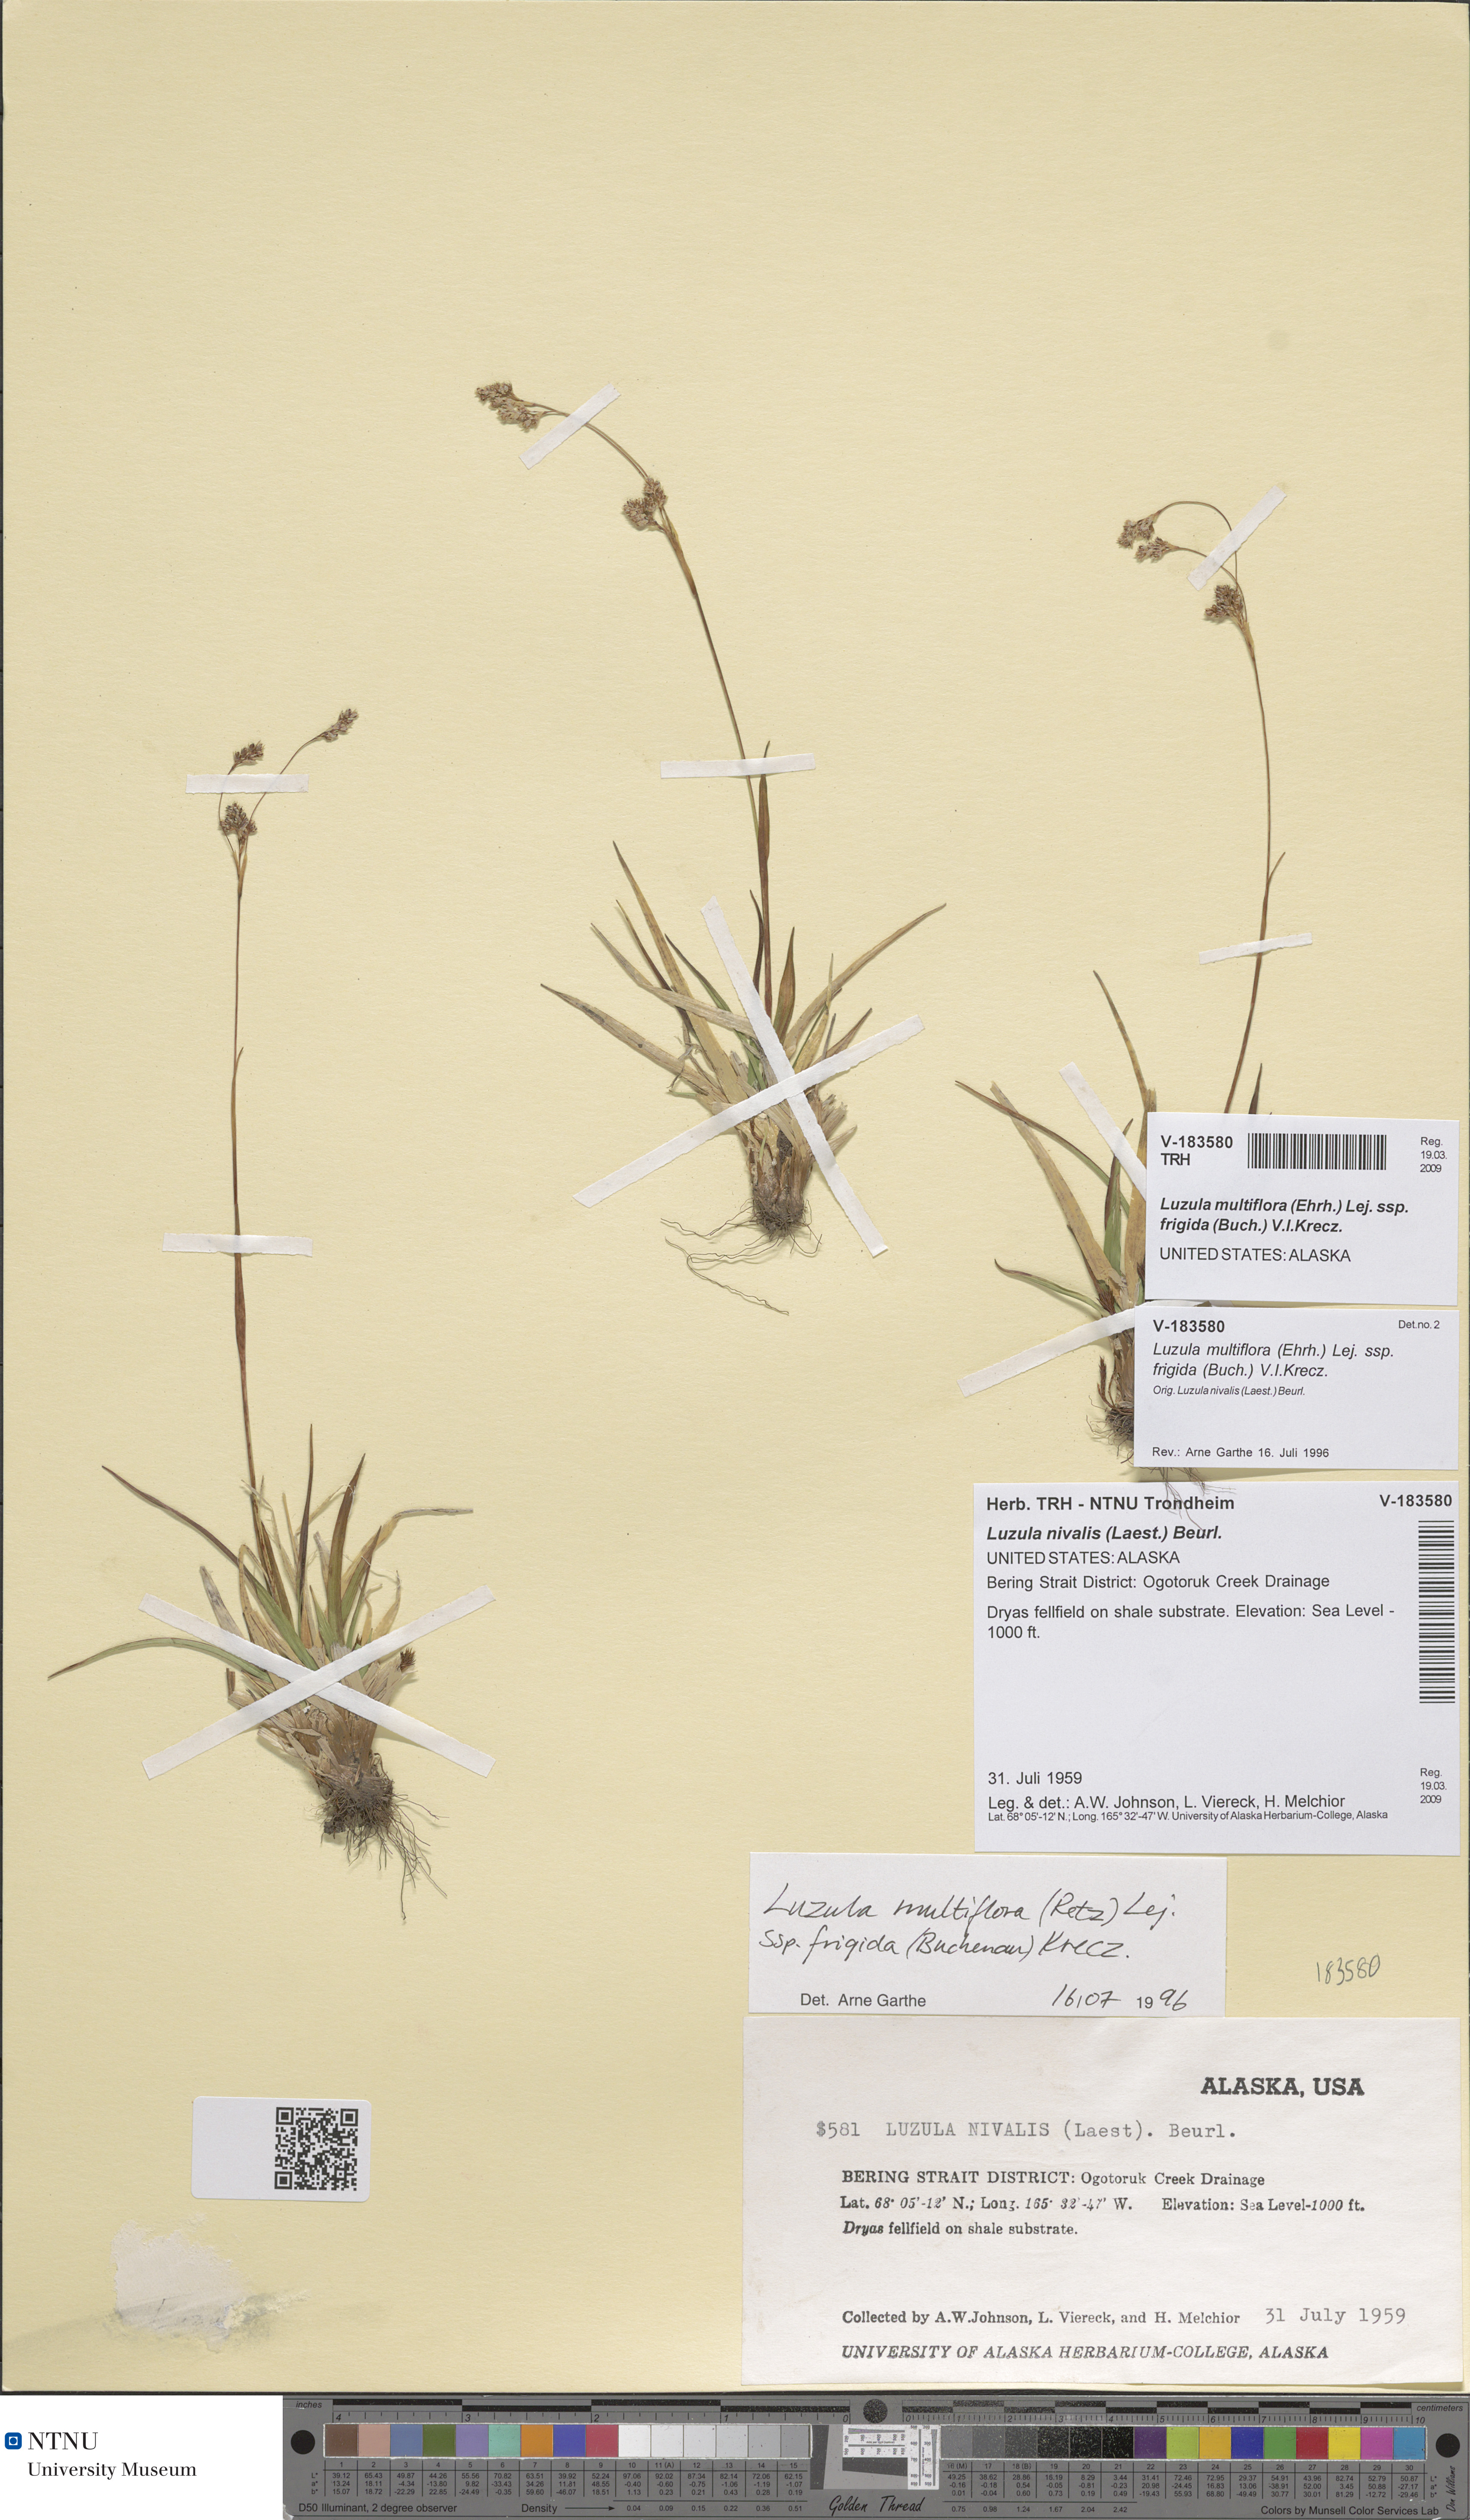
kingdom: Plantae
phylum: Tracheophyta
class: Liliopsida
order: Poales
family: Juncaceae
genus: Luzula
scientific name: Luzula multiflora
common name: Heath wood-rush
